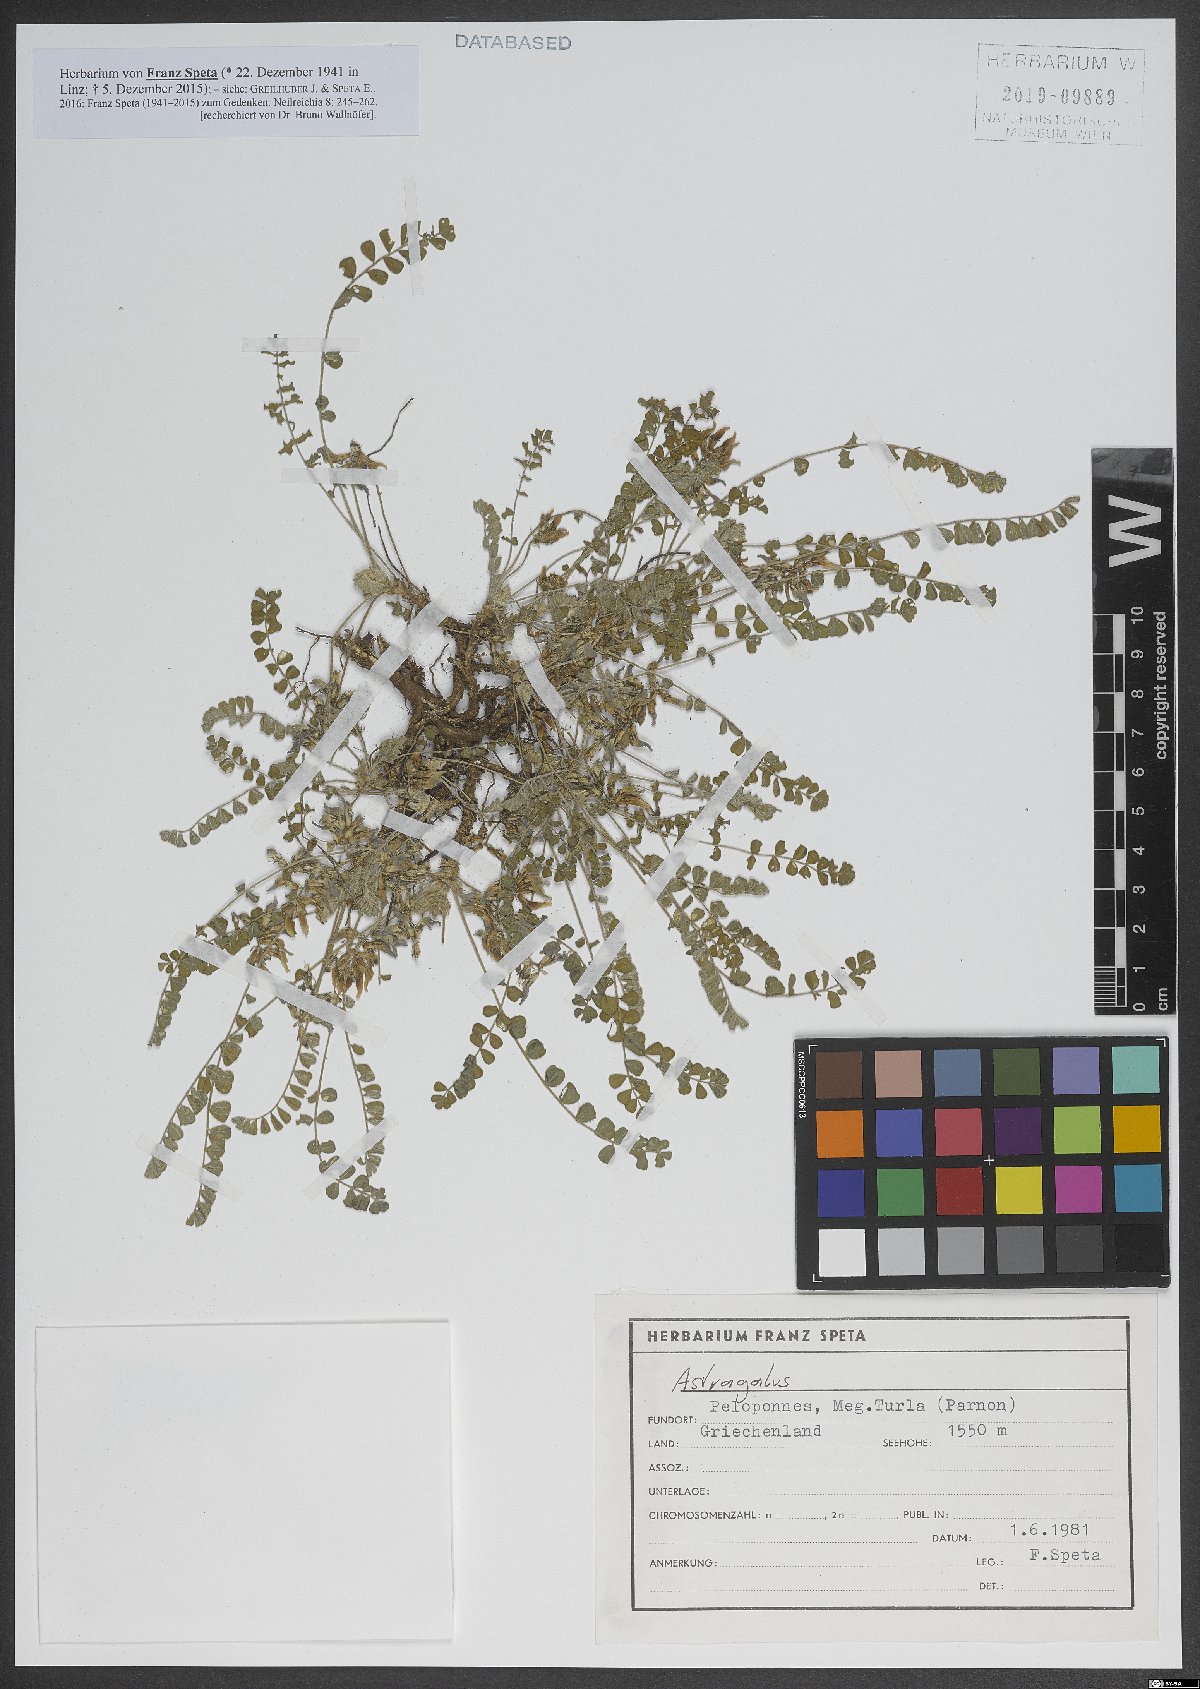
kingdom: Plantae
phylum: Tracheophyta
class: Magnoliopsida
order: Fabales
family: Fabaceae
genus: Astragalus
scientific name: Astragalus
